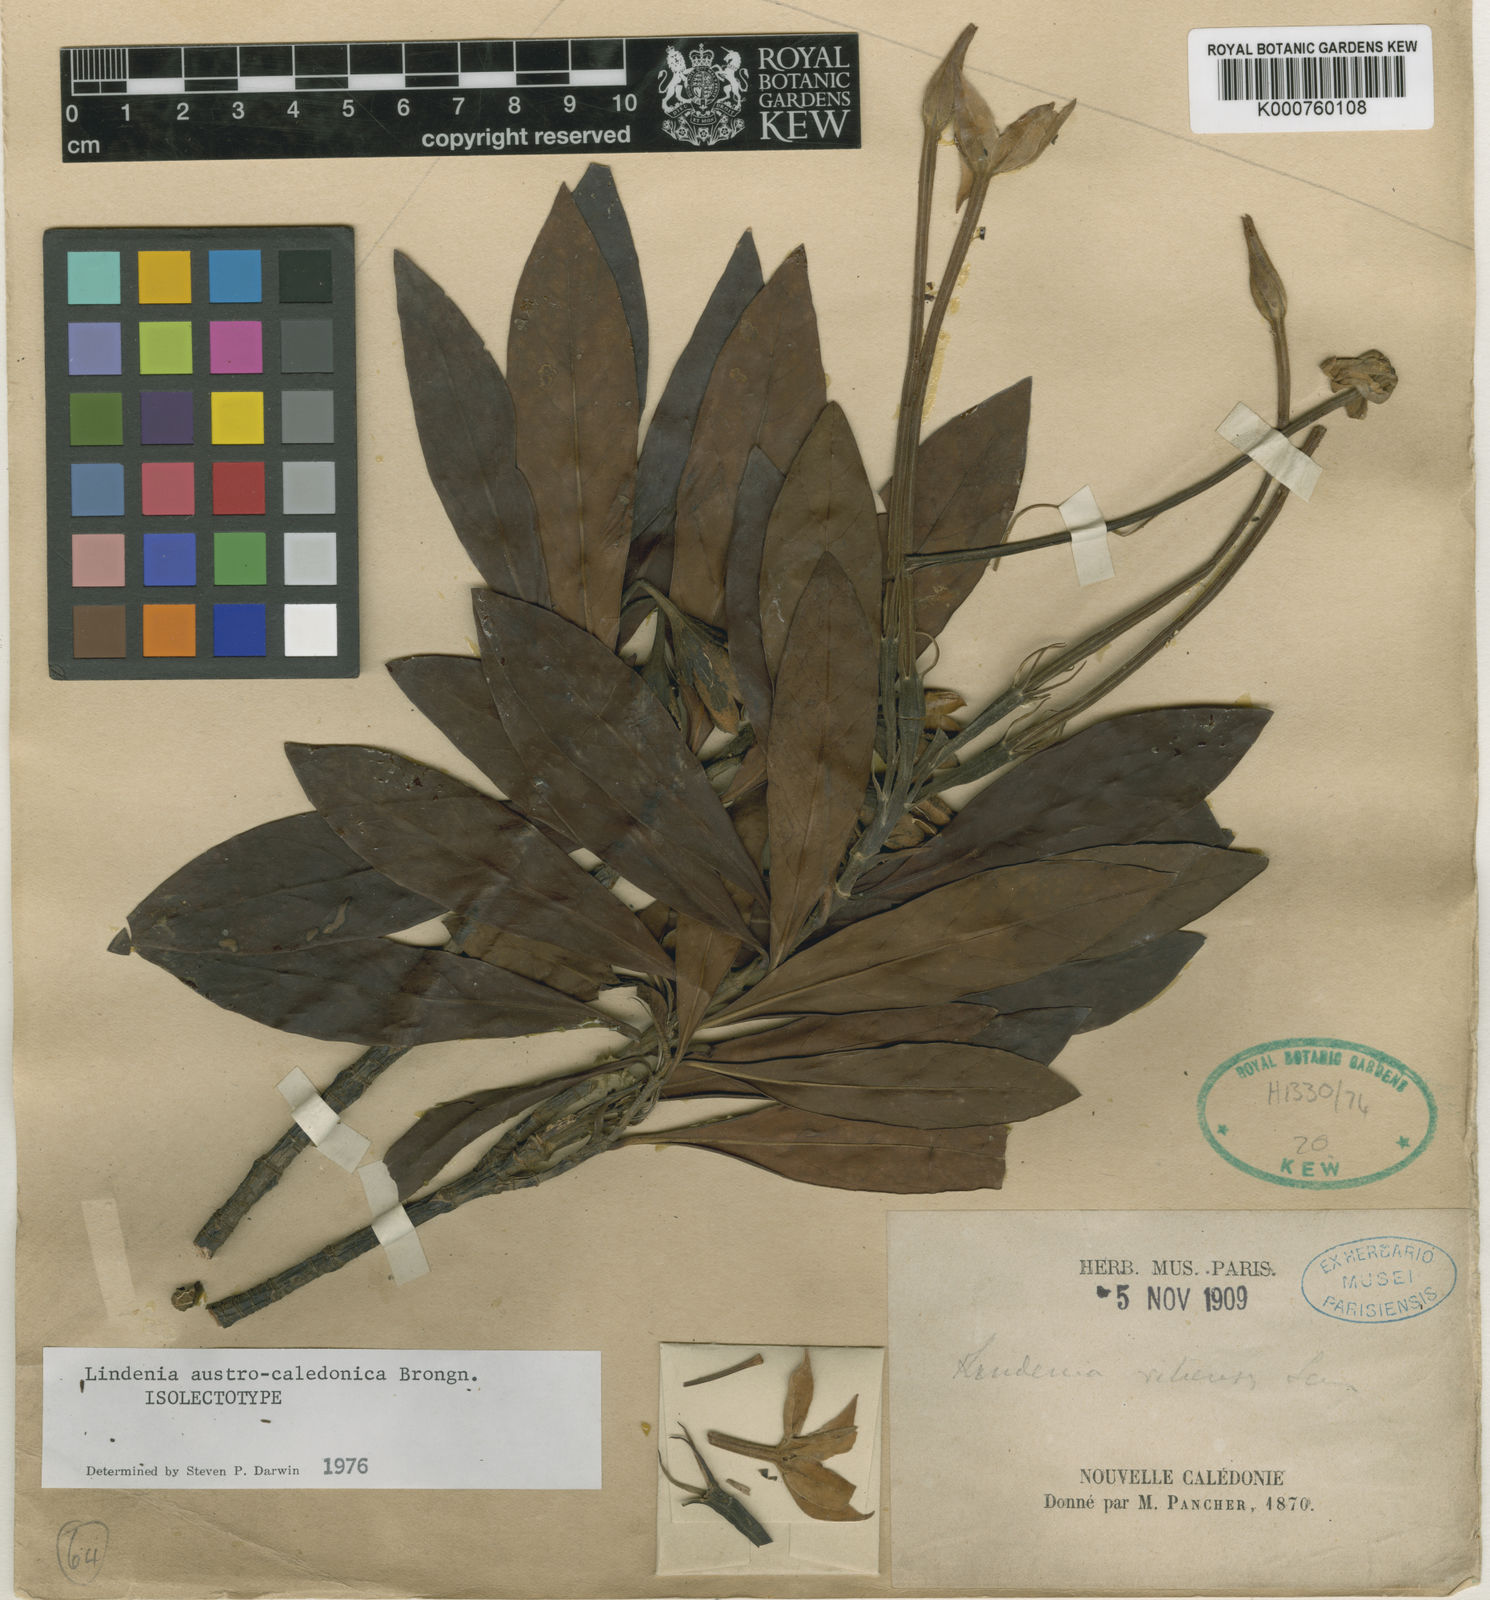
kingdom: Plantae
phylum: Tracheophyta
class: Magnoliopsida
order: Gentianales
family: Rubiaceae
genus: Augusta
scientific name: Augusta austrocaledonica
